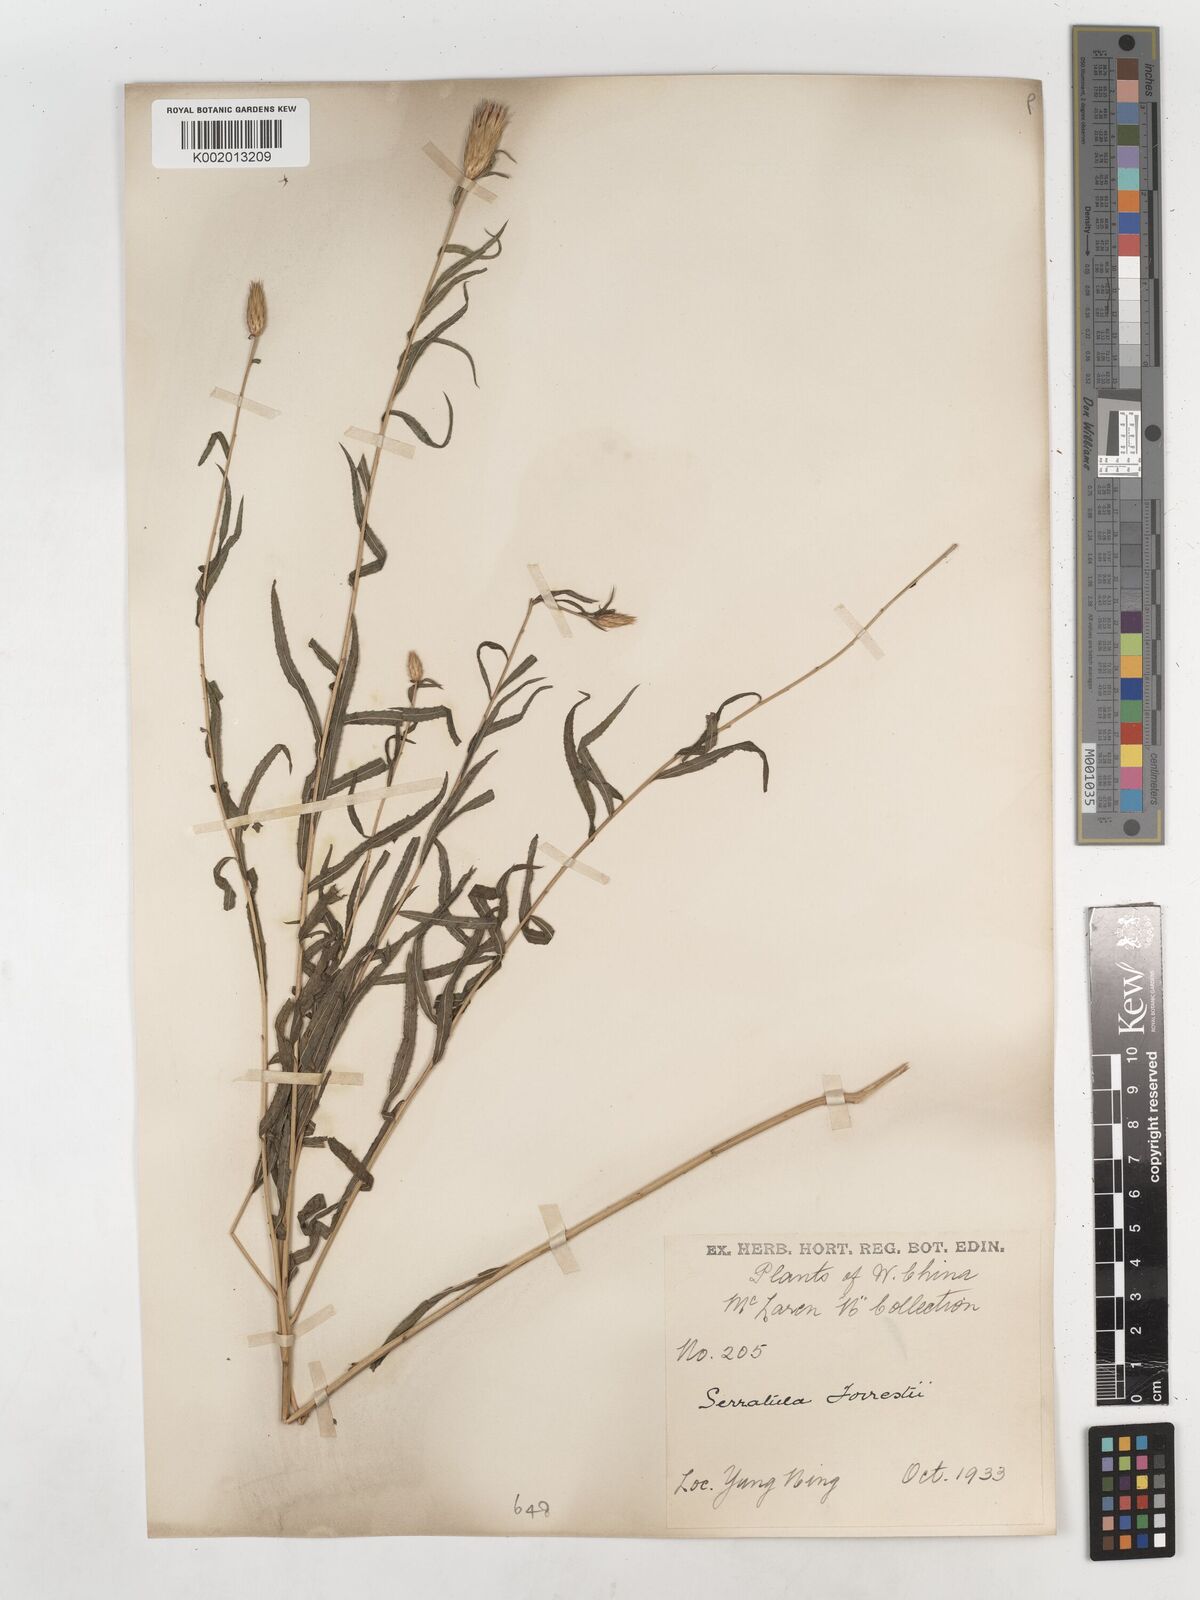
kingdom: Plantae
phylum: Tracheophyta
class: Magnoliopsida
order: Asterales
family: Asteraceae
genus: Archiserratula
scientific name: Archiserratula forrestii
